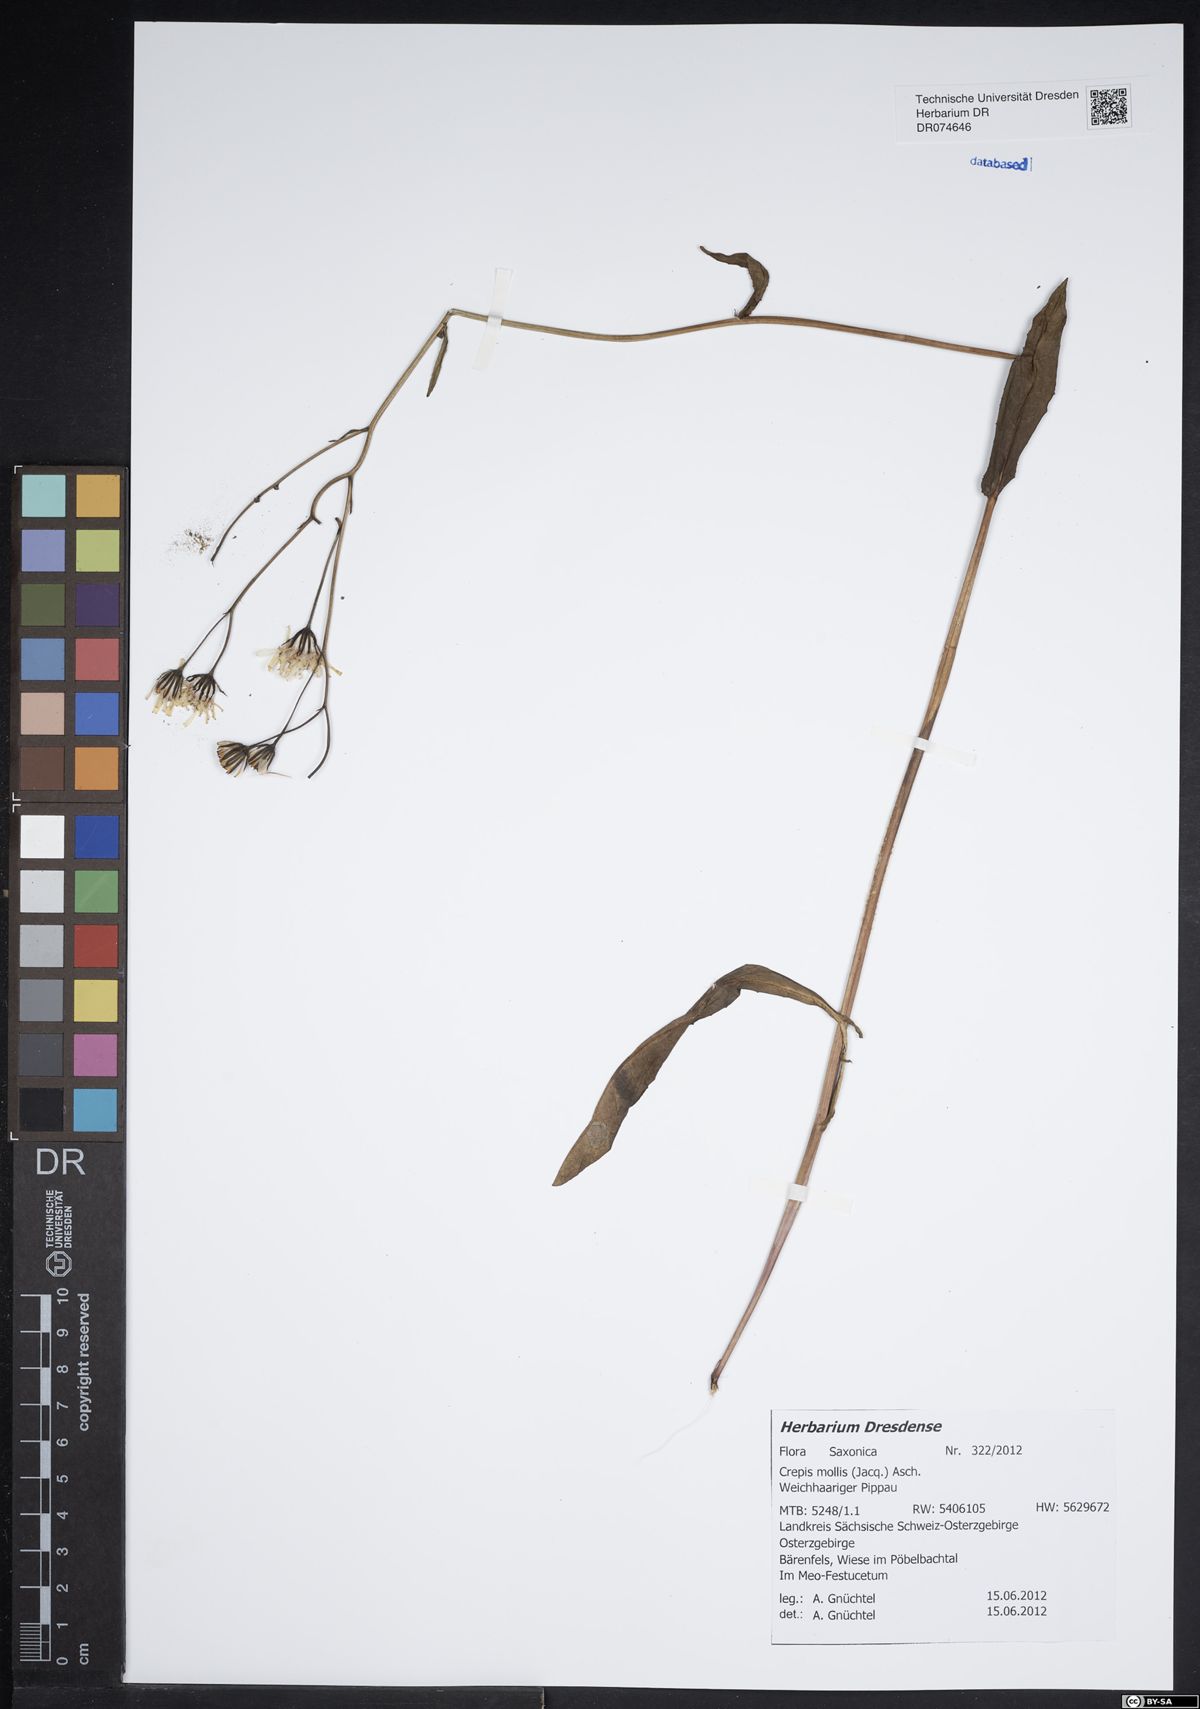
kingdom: Plantae
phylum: Tracheophyta
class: Magnoliopsida
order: Asterales
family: Asteraceae
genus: Crepis
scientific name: Crepis biennis
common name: Rough hawk's-beard
